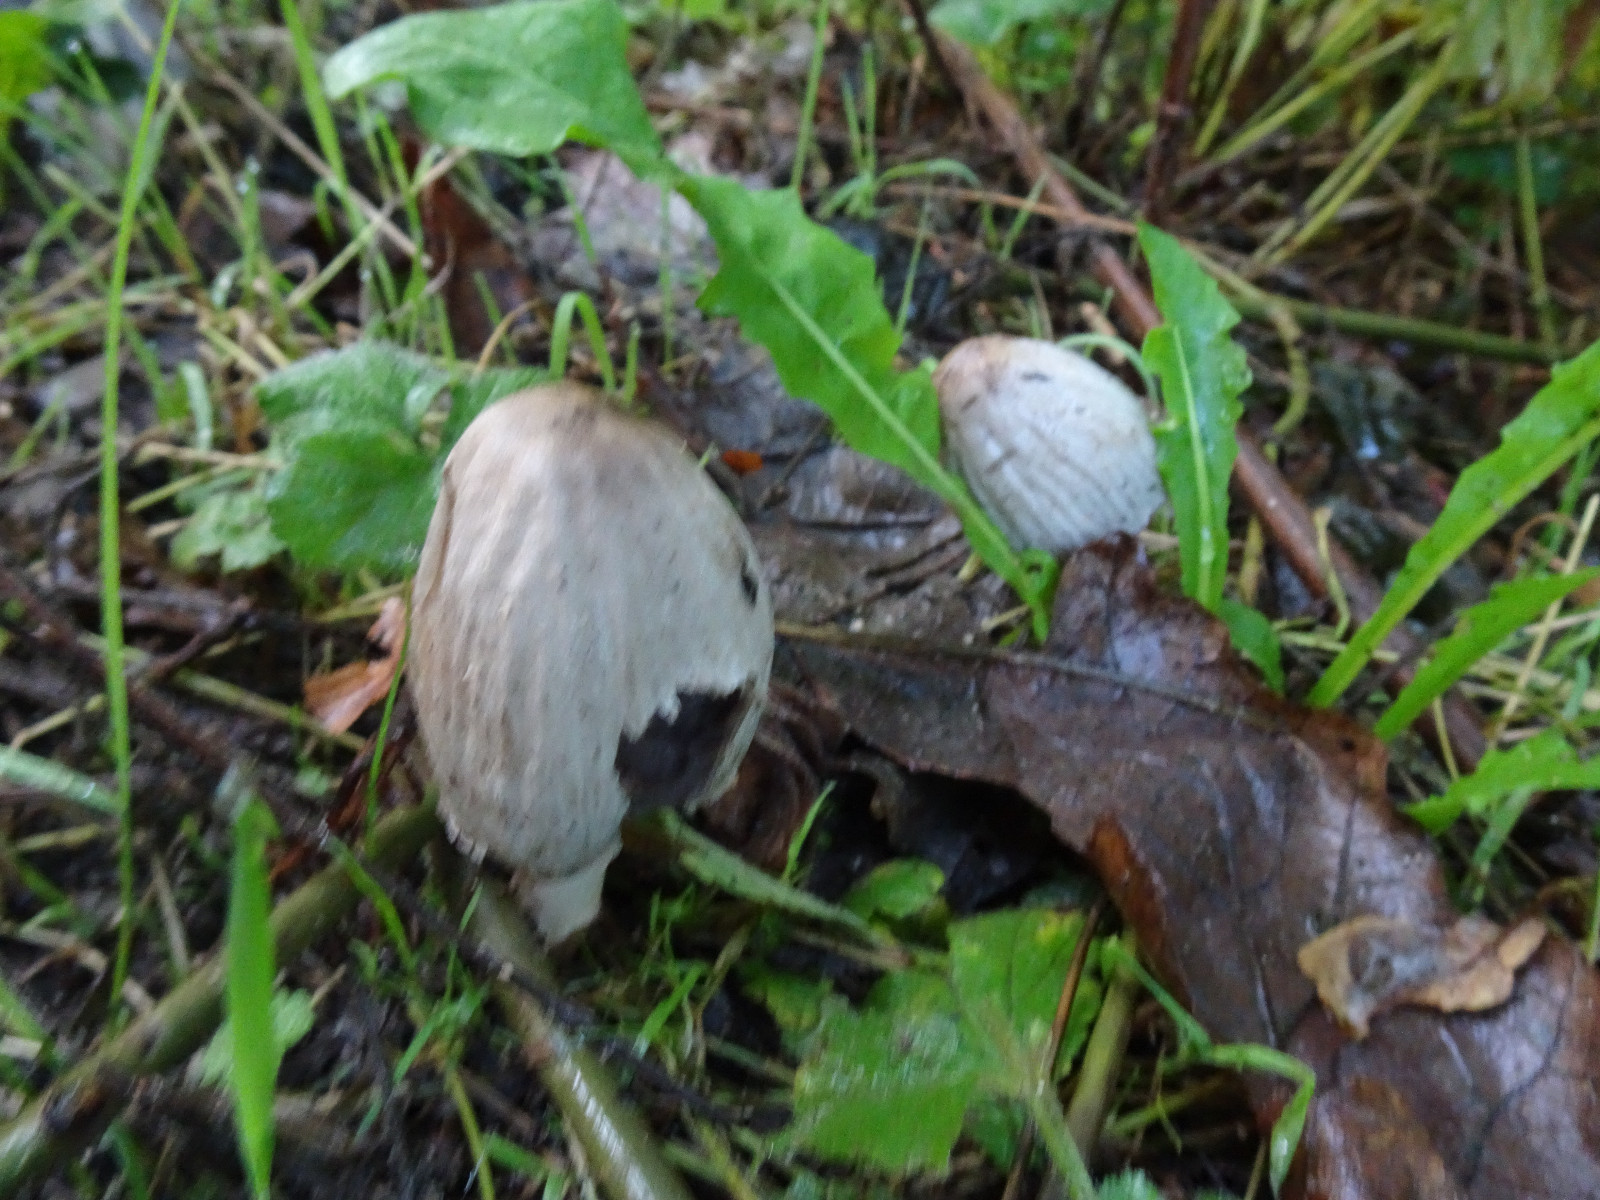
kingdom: Fungi
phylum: Basidiomycota
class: Agaricomycetes
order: Agaricales
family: Psathyrellaceae
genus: Coprinopsis
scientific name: Coprinopsis atramentaria
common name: almindelig blækhat
